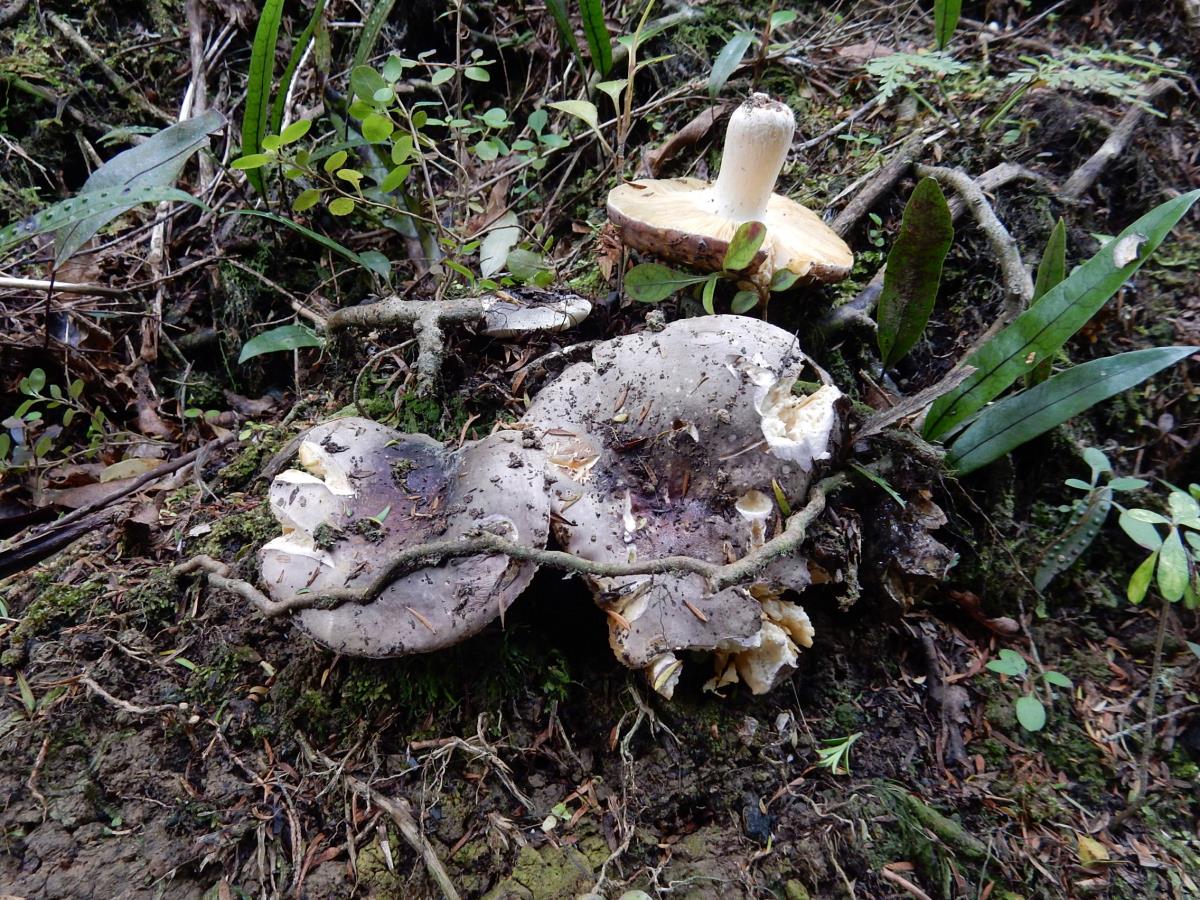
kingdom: Fungi
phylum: Basidiomycota
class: Agaricomycetes
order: Russulales
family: Russulaceae
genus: Russula
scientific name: Russula
